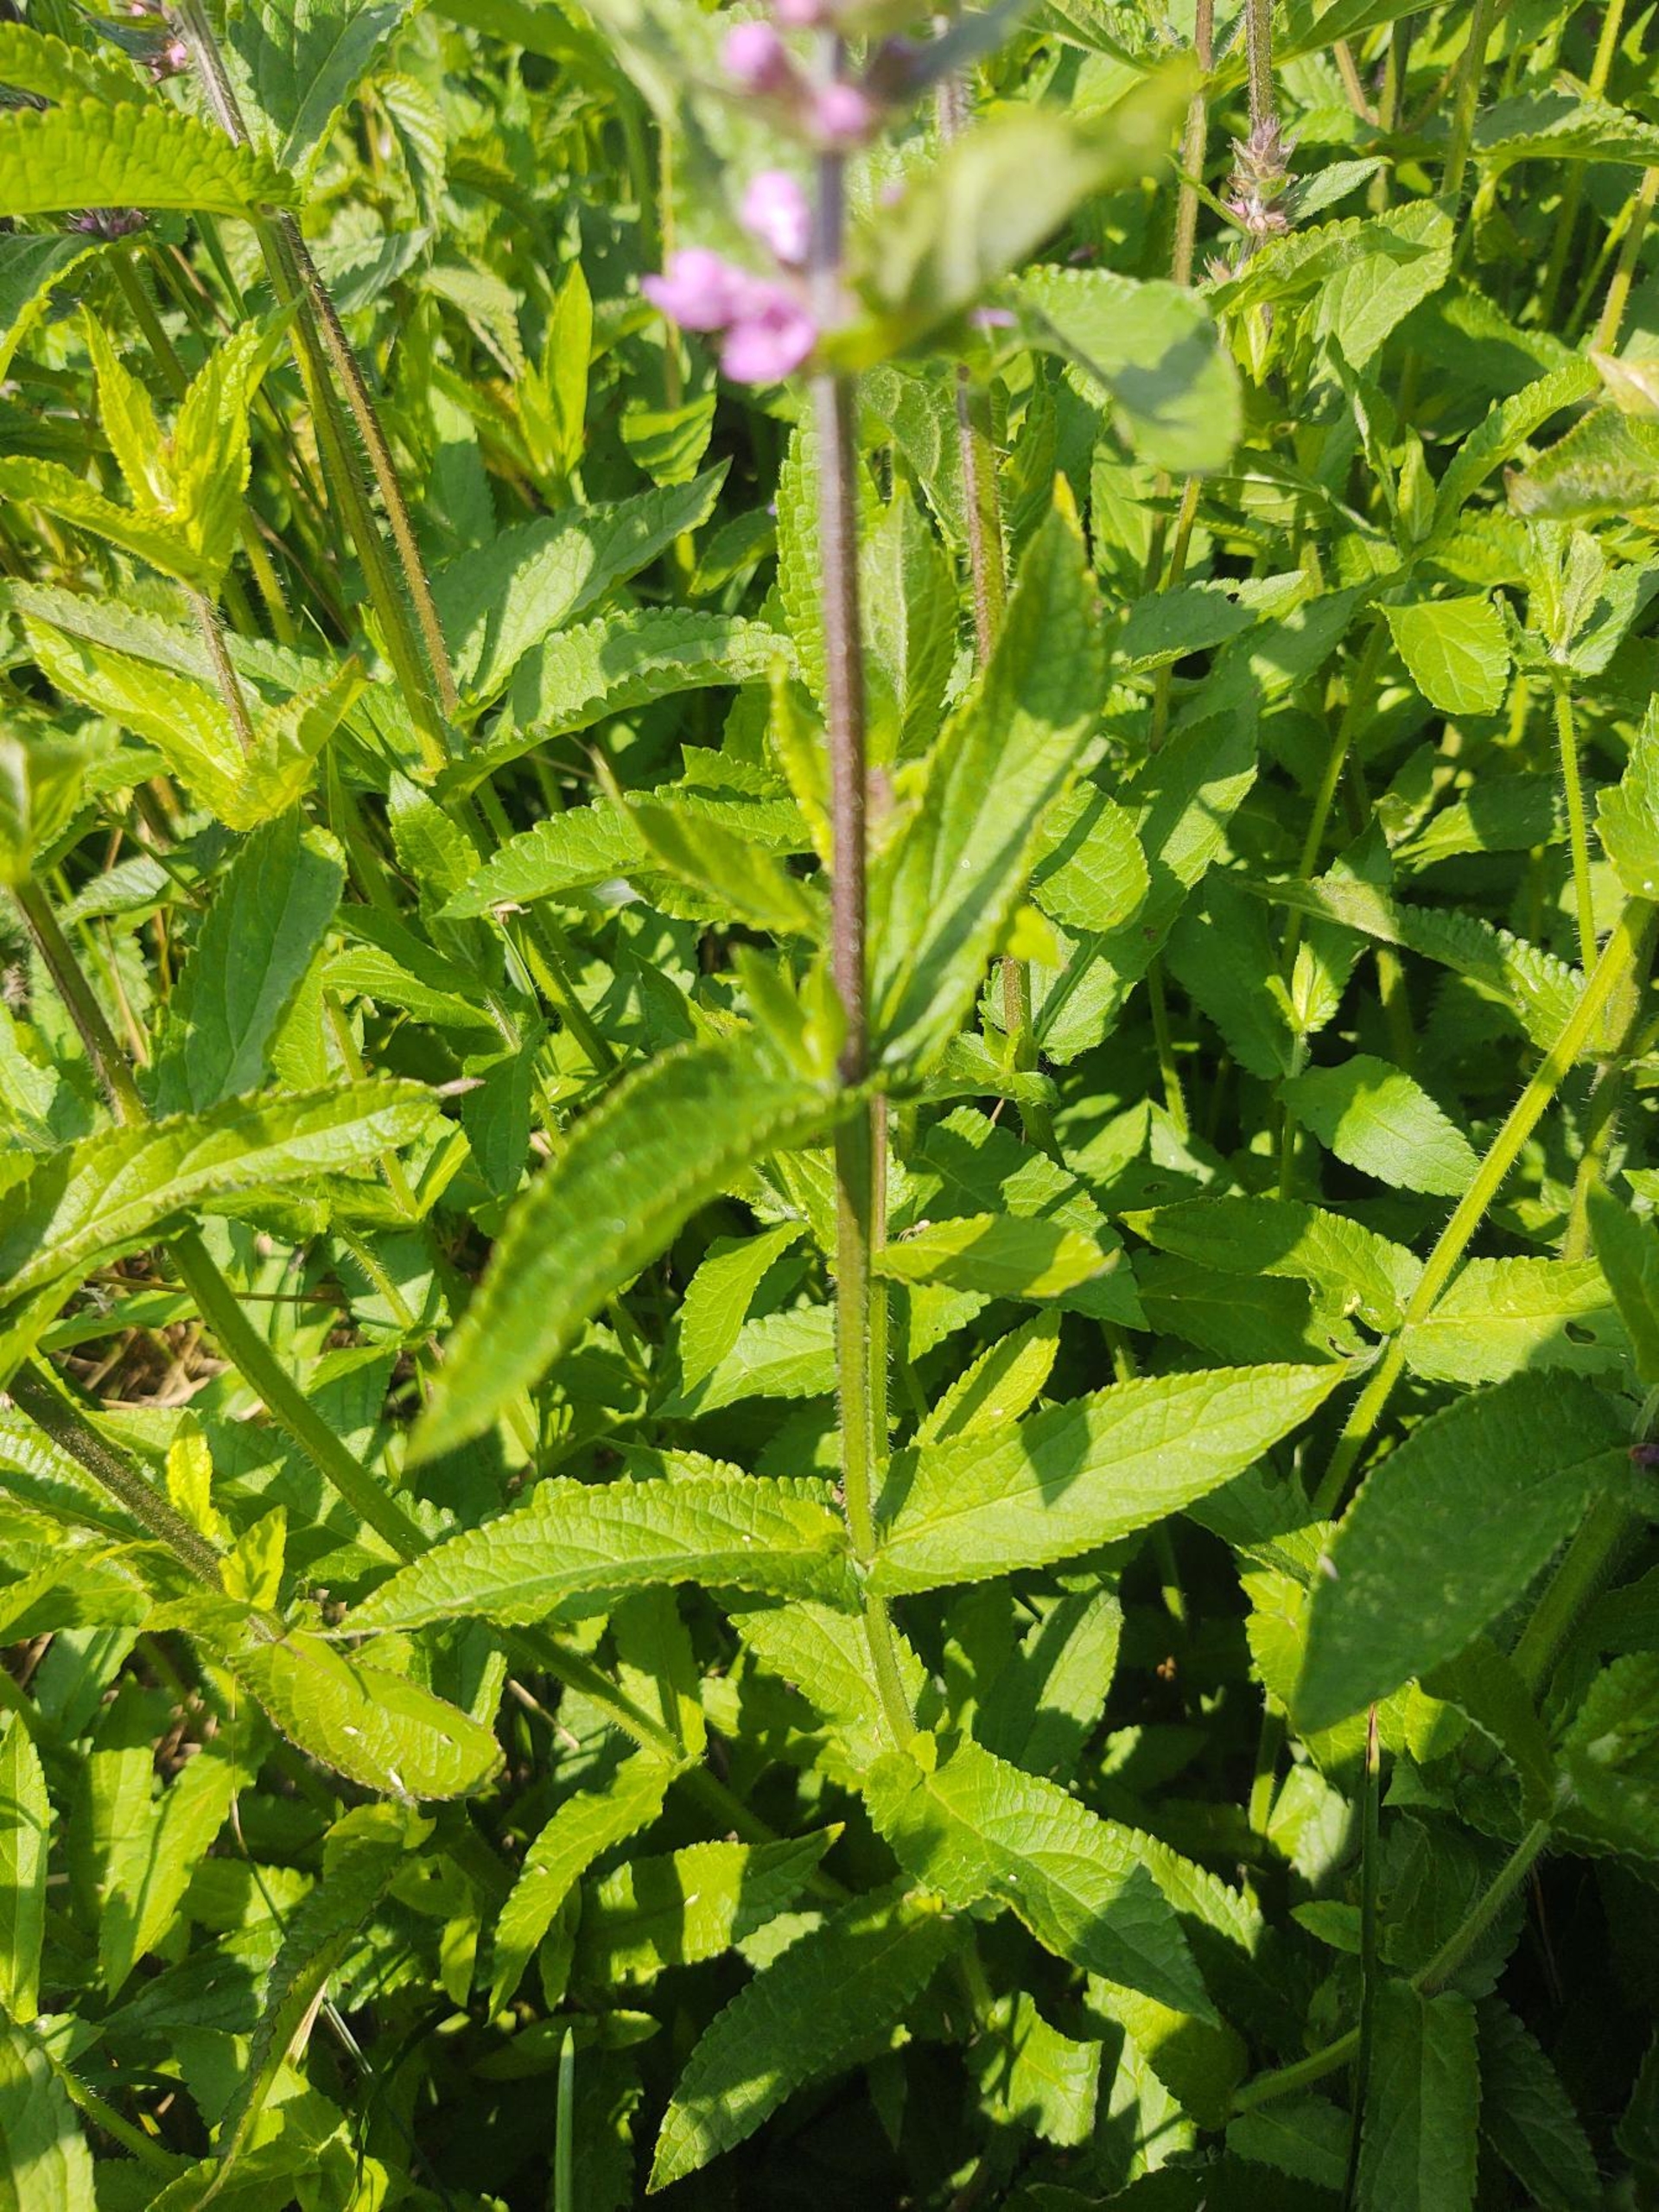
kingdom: Plantae
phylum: Tracheophyta
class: Magnoliopsida
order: Lamiales
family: Lamiaceae
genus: Stachys
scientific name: Stachys palustris
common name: Kær-galtetand
